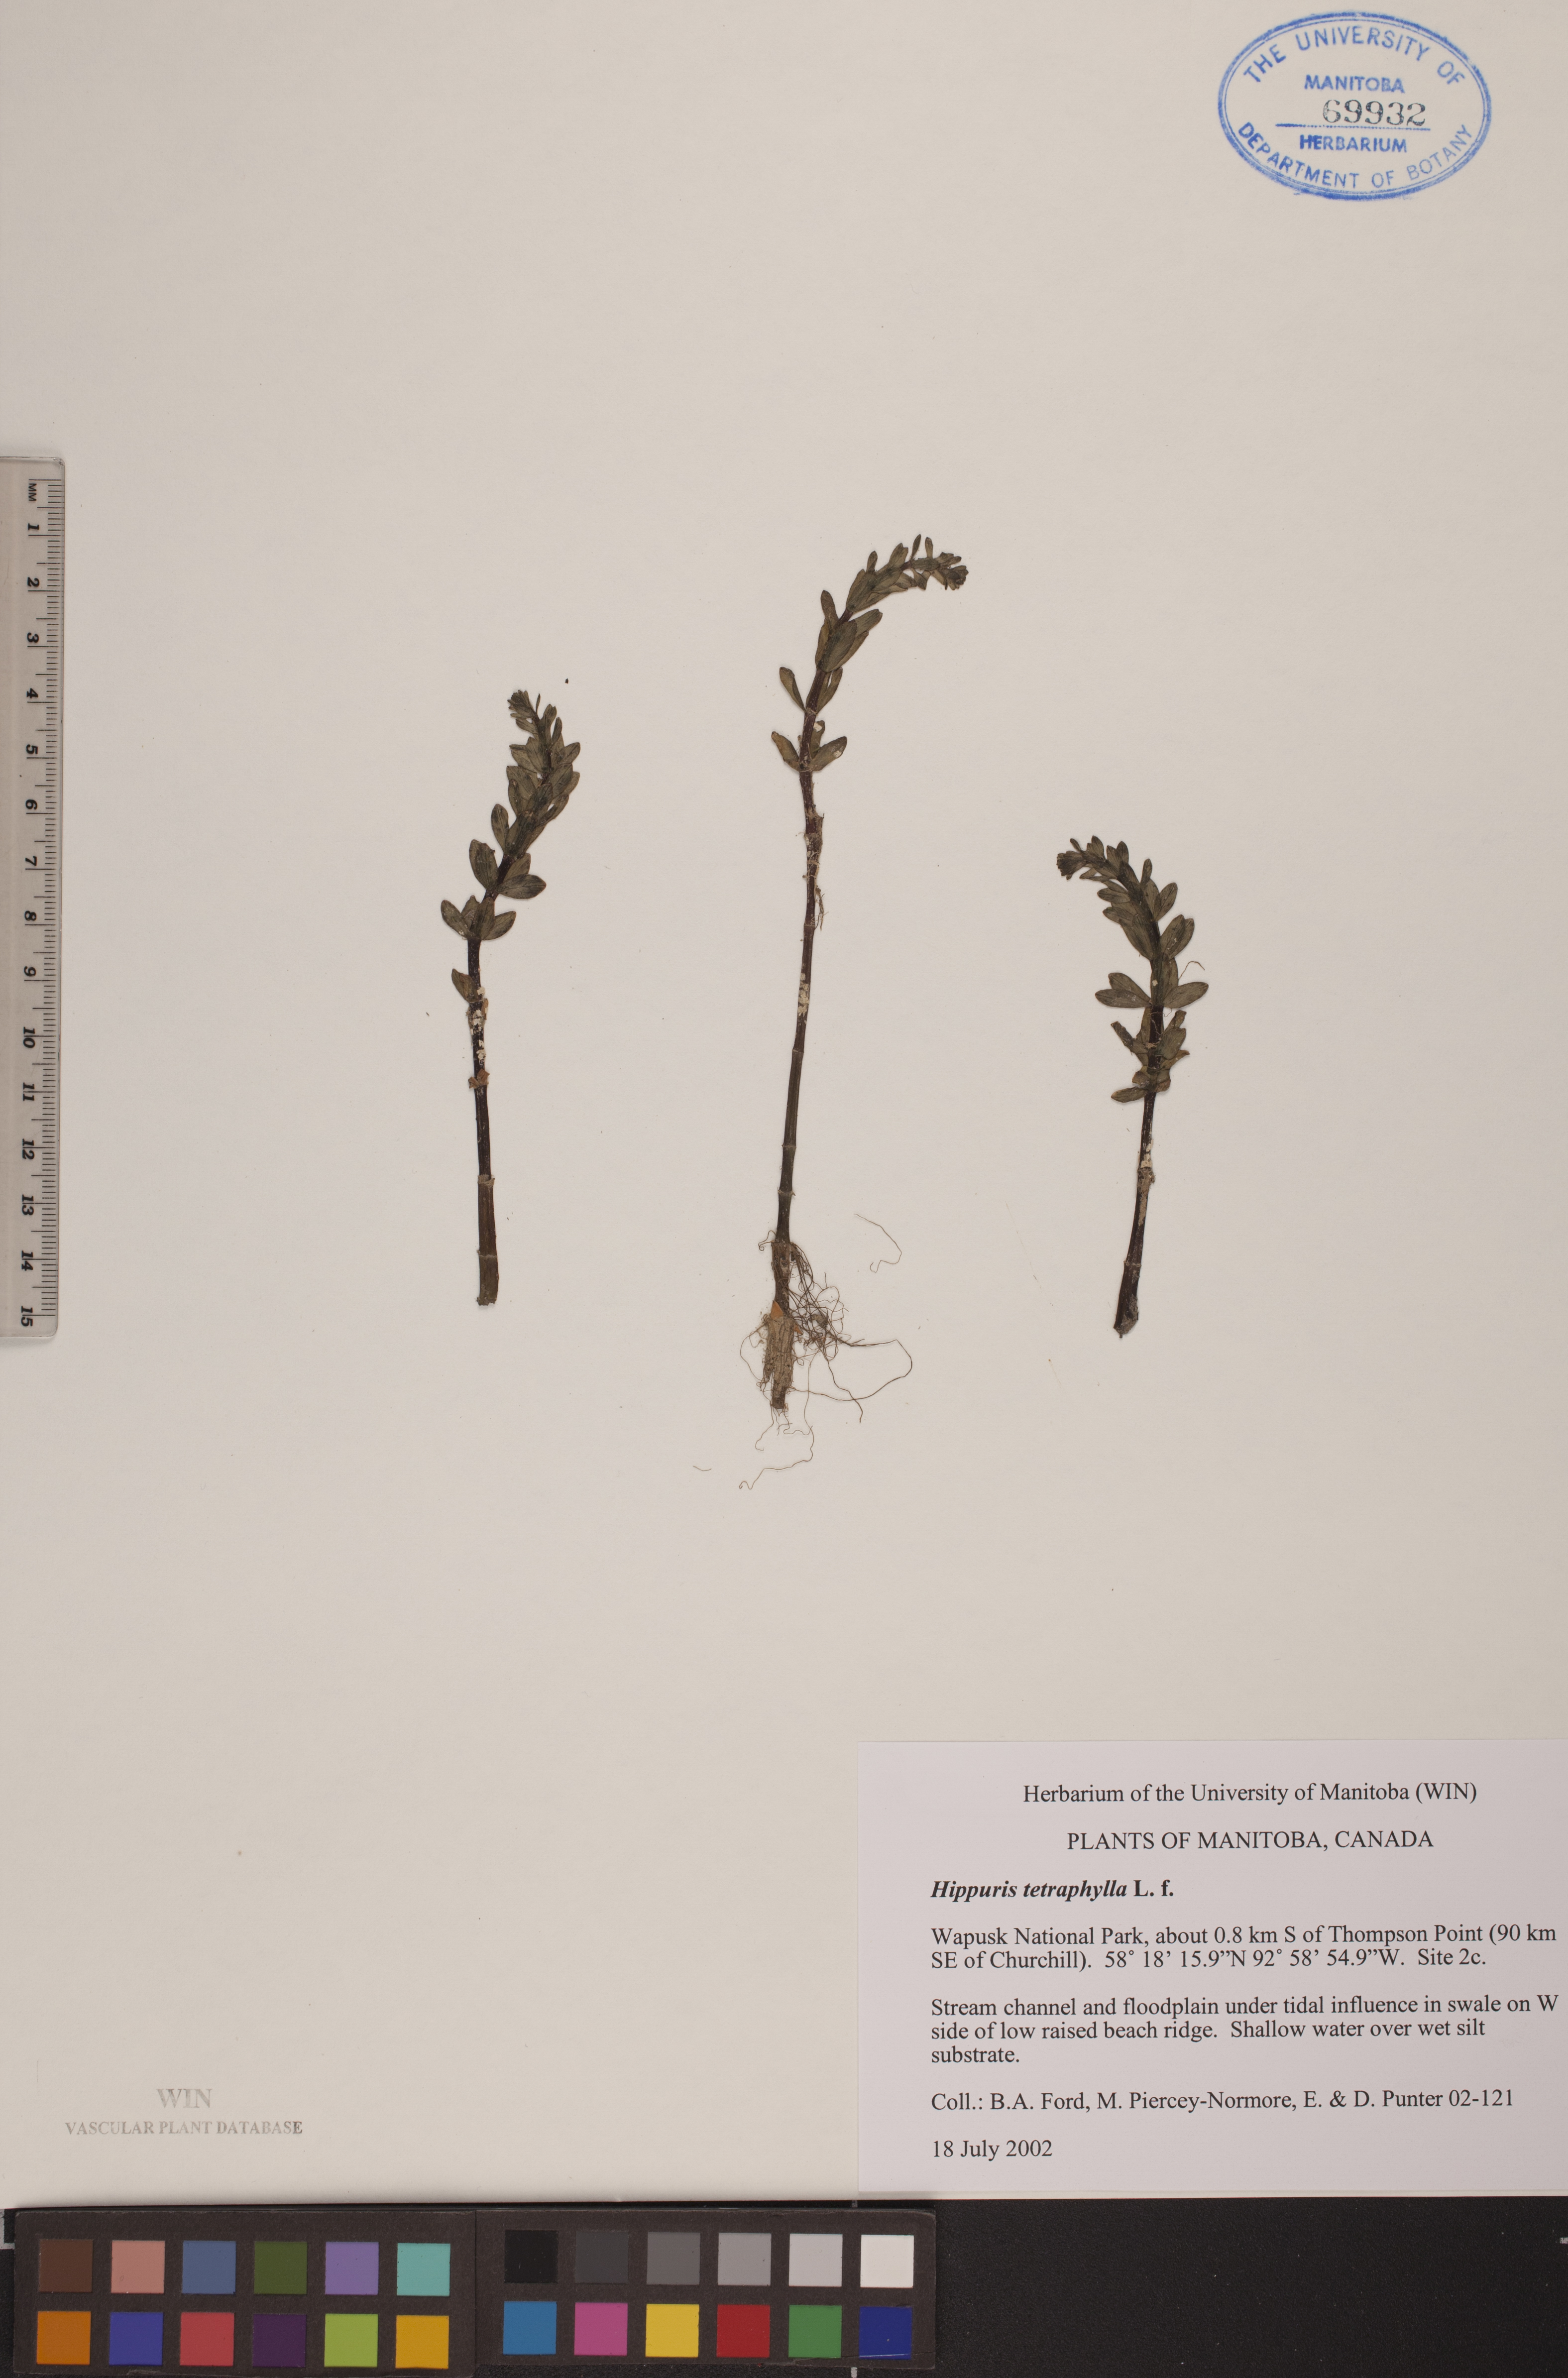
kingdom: Plantae
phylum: Tracheophyta
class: Magnoliopsida
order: Lamiales
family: Plantaginaceae
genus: Hippuris
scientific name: Hippuris tetraphylla
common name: Four-leaved mare's-tail
